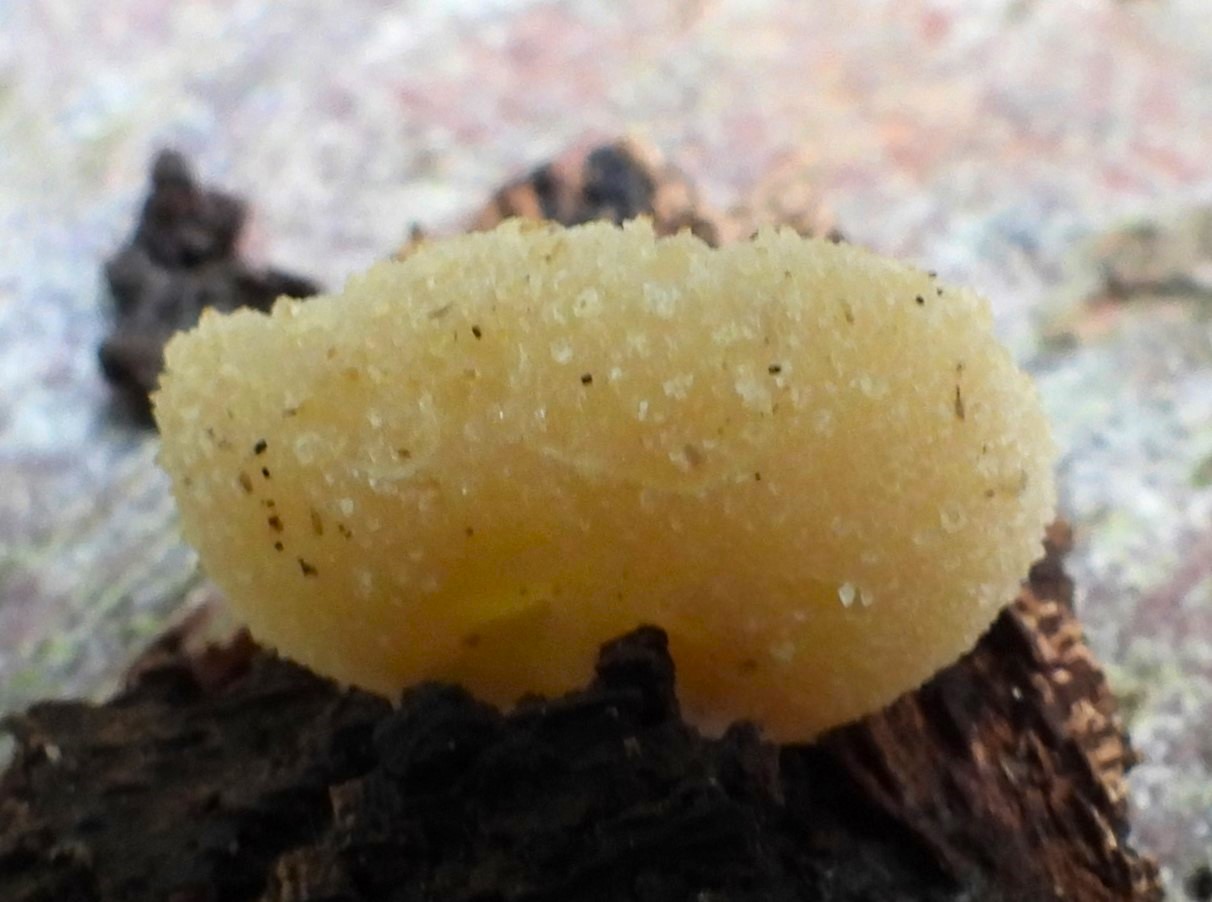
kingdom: Fungi
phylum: Ascomycota
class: Pezizomycetes
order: Pezizales
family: Pezizaceae
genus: Peziza
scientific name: Peziza varia
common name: Ved-bægersvamp
